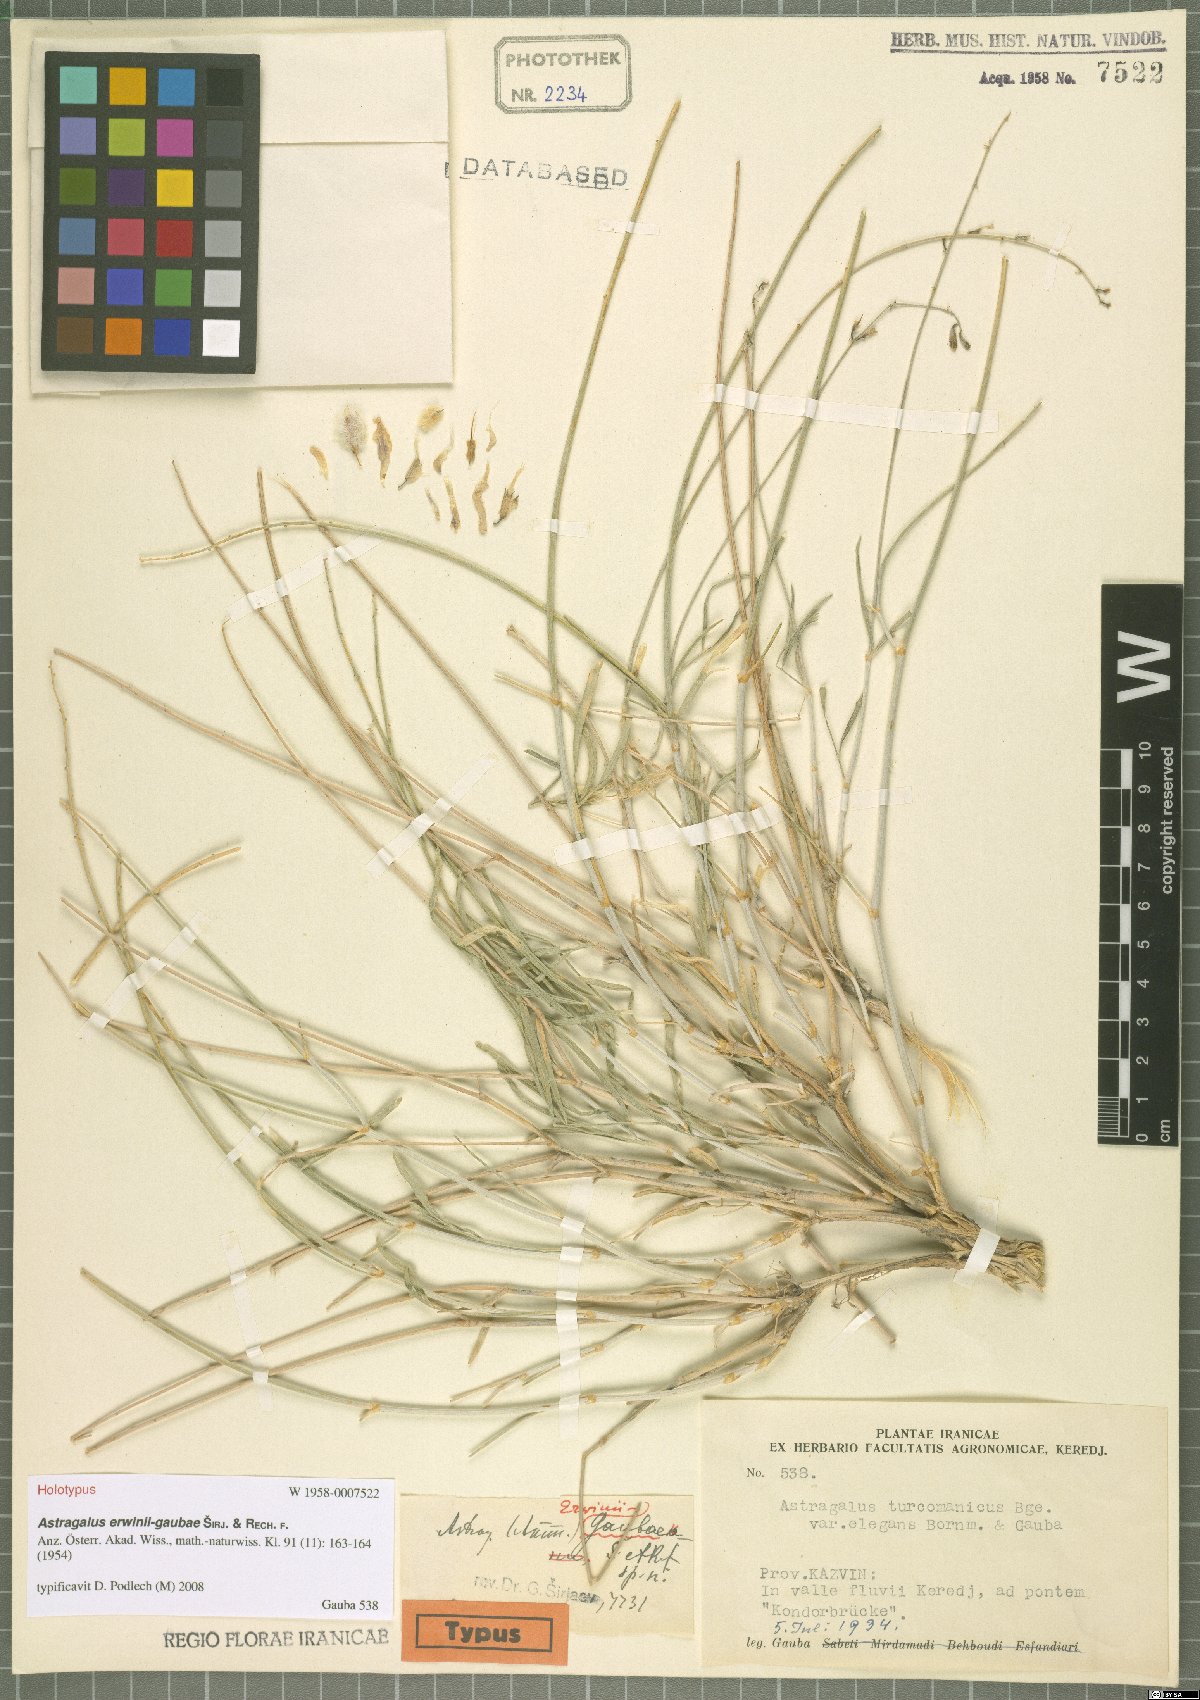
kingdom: Plantae
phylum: Tracheophyta
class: Magnoliopsida
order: Fabales
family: Fabaceae
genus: Astragalus
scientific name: Astragalus erwinii-gaubae
